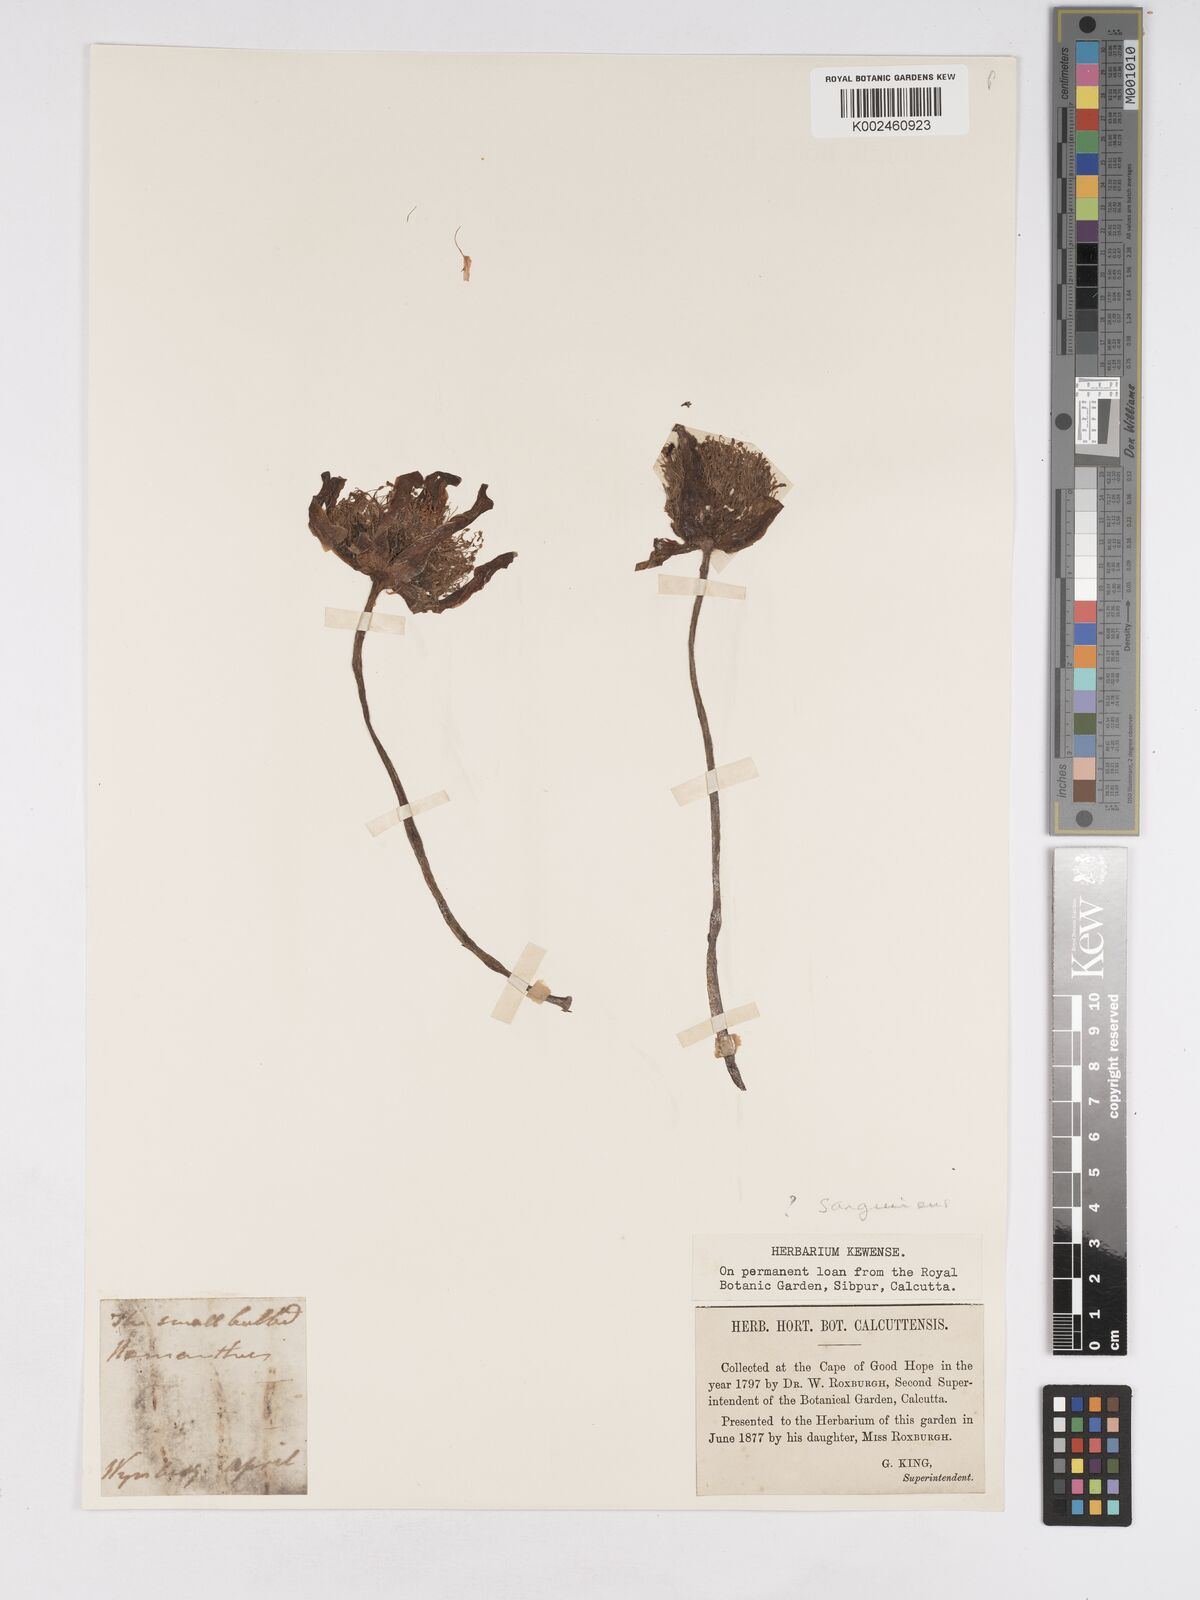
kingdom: Plantae
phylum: Tracheophyta
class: Liliopsida
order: Asparagales
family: Amaryllidaceae
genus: Haemanthus
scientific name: Haemanthus sanguineus
